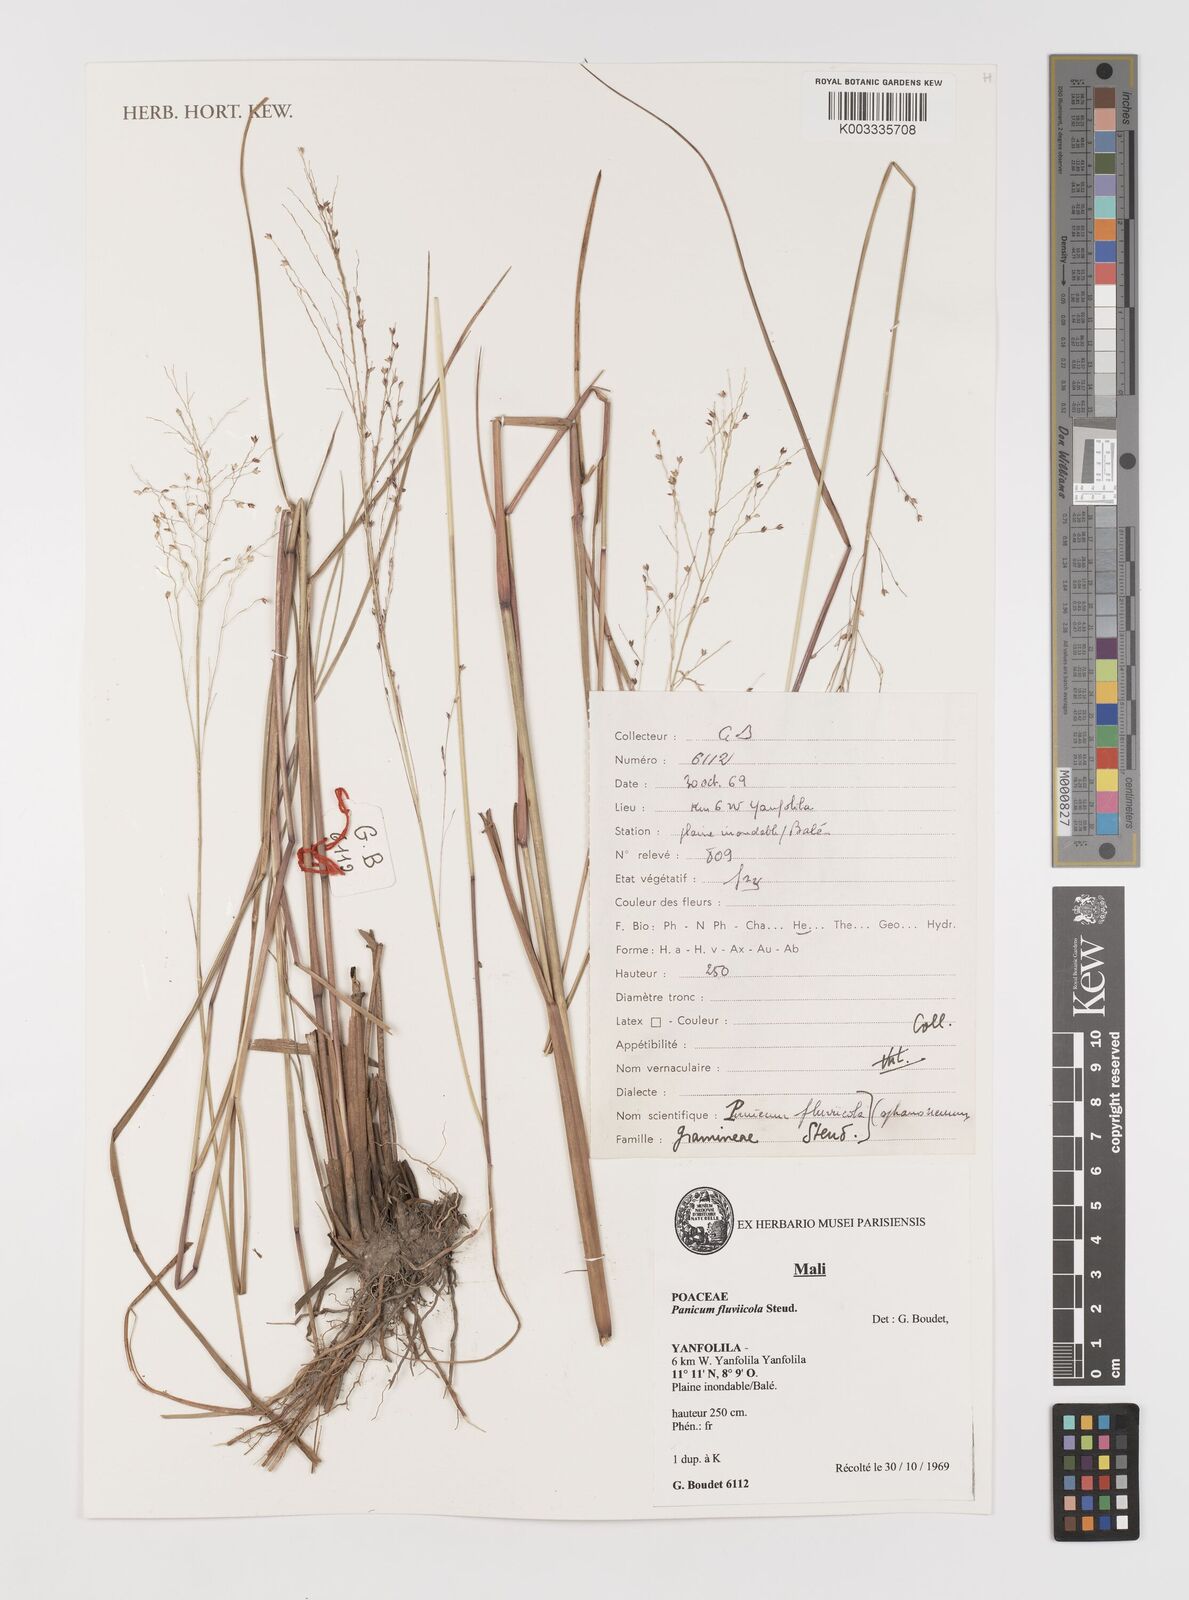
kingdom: Plantae
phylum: Tracheophyta
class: Liliopsida
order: Poales
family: Poaceae
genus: Panicum
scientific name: Panicum fluviicola
